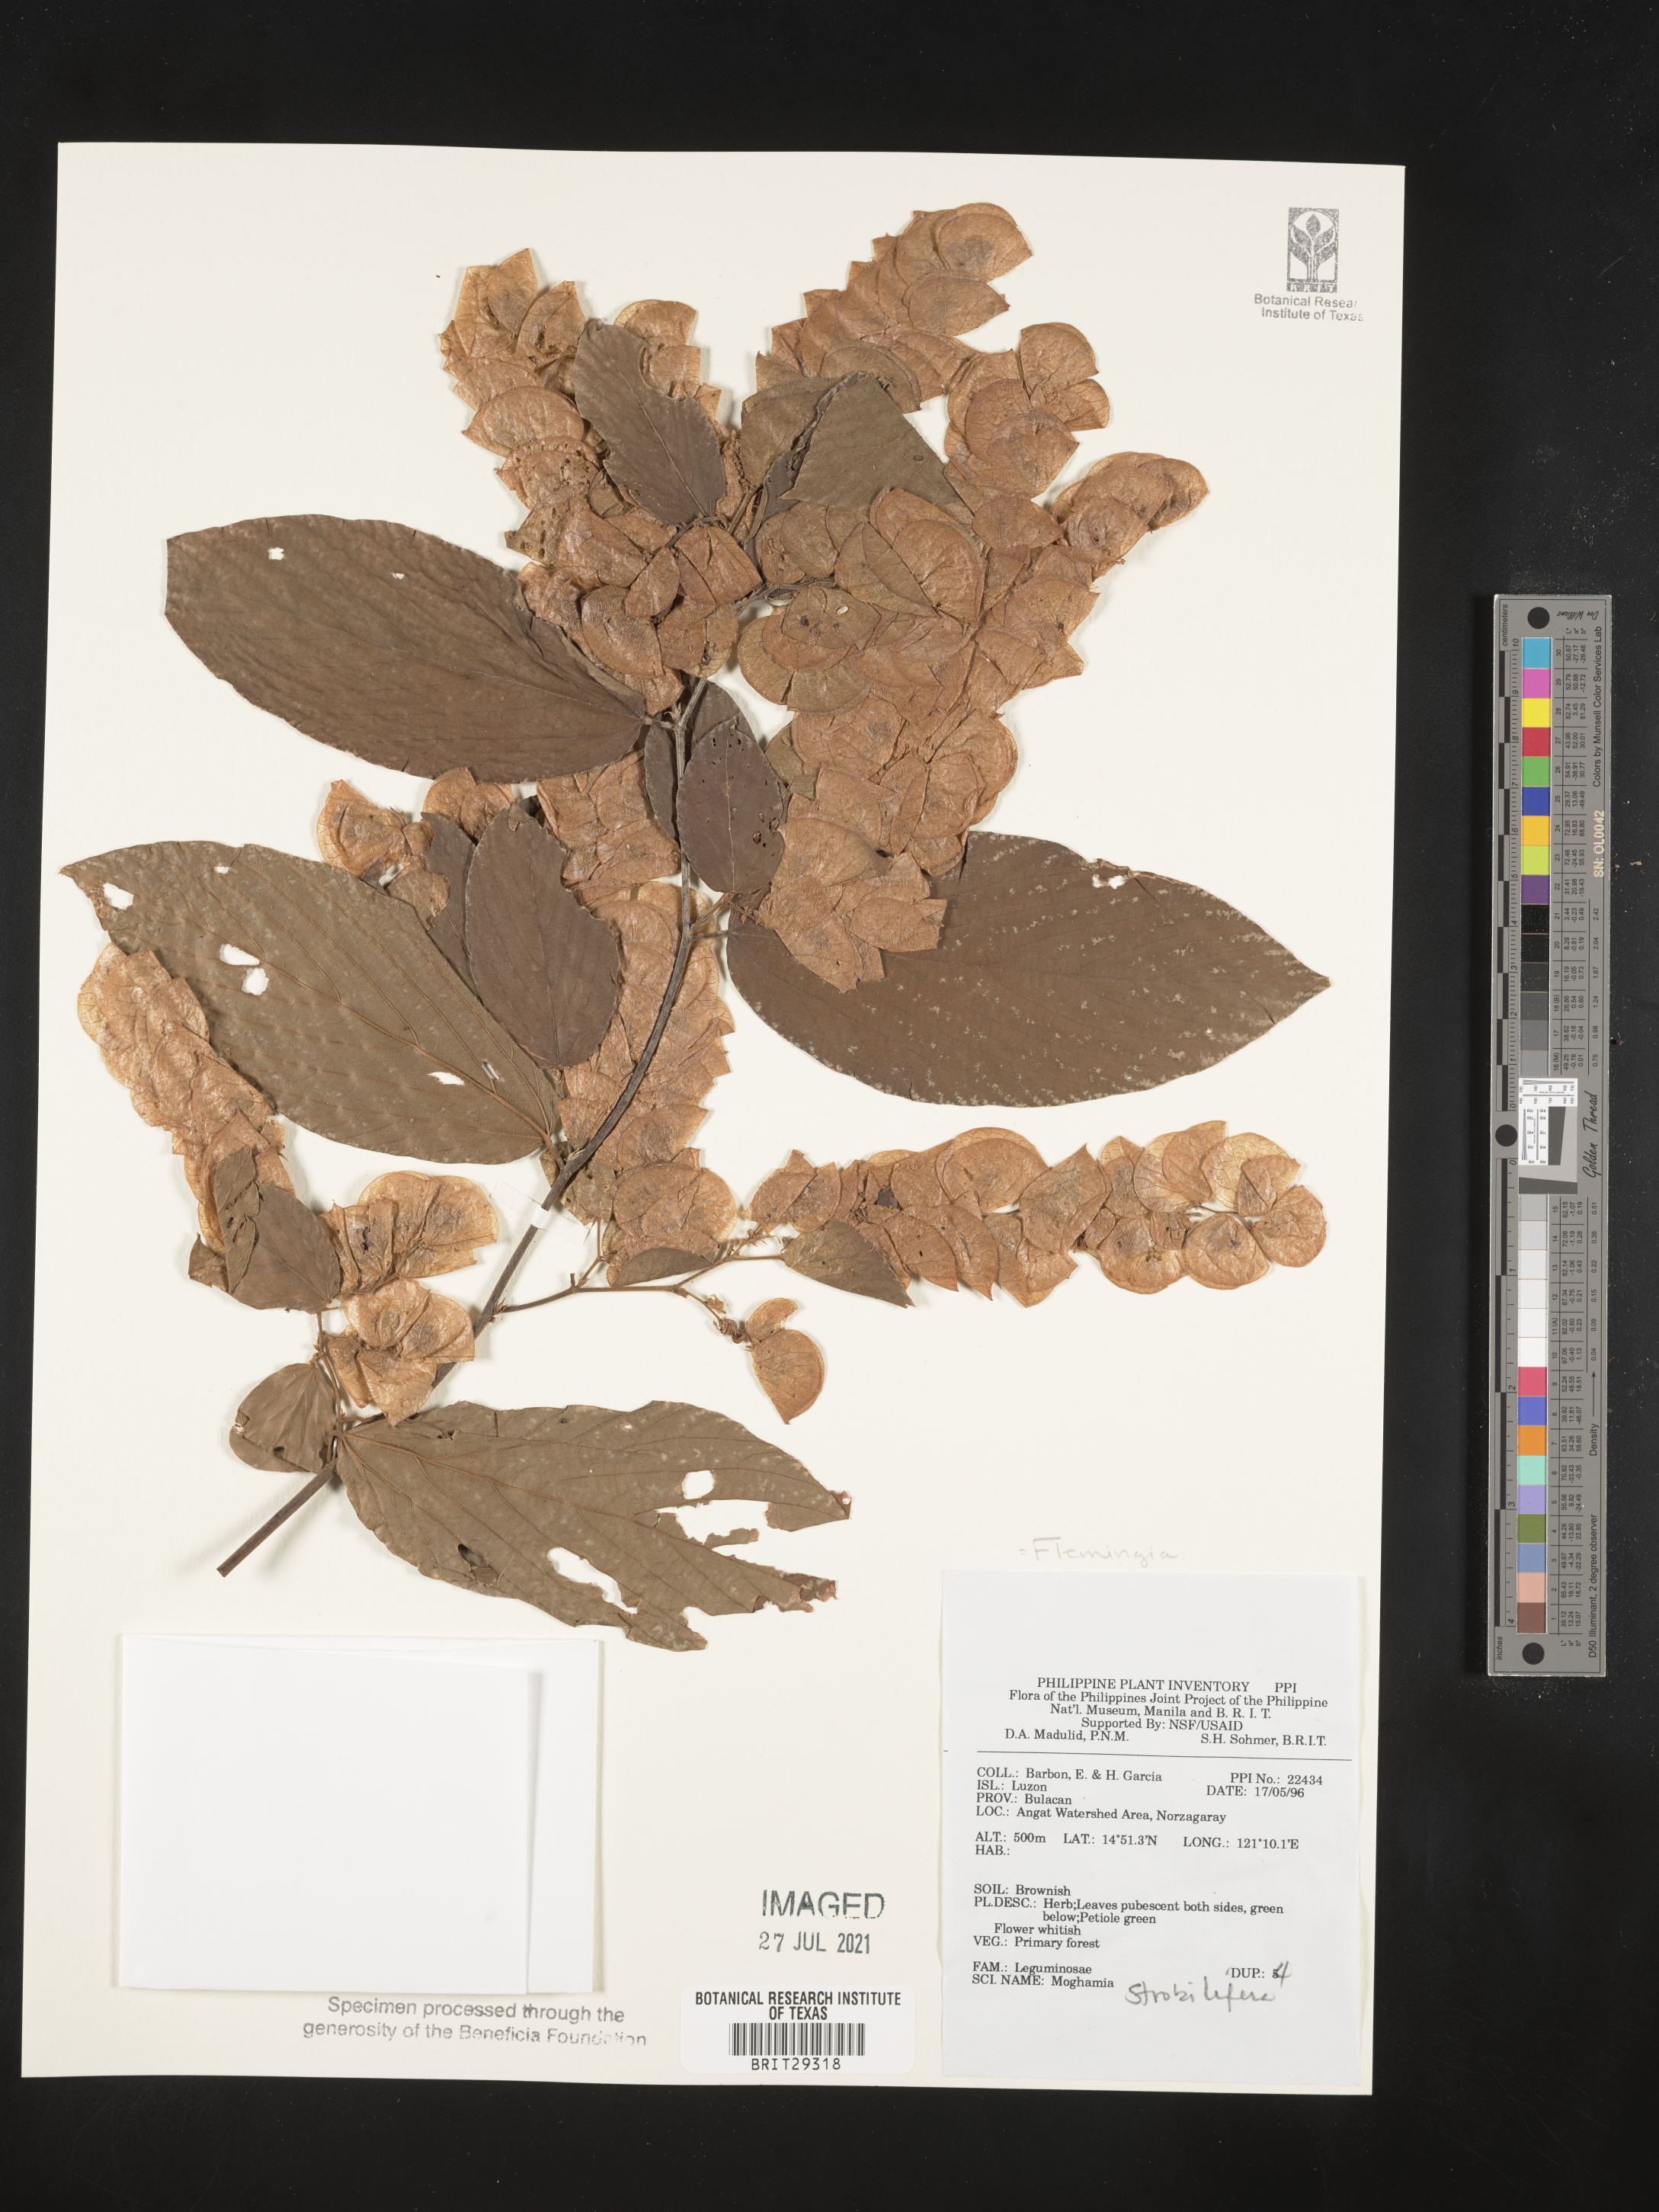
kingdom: Plantae
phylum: Tracheophyta
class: Magnoliopsida
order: Fabales
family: Fabaceae
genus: Flemingia
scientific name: Flemingia strobilifera
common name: Wild hops
